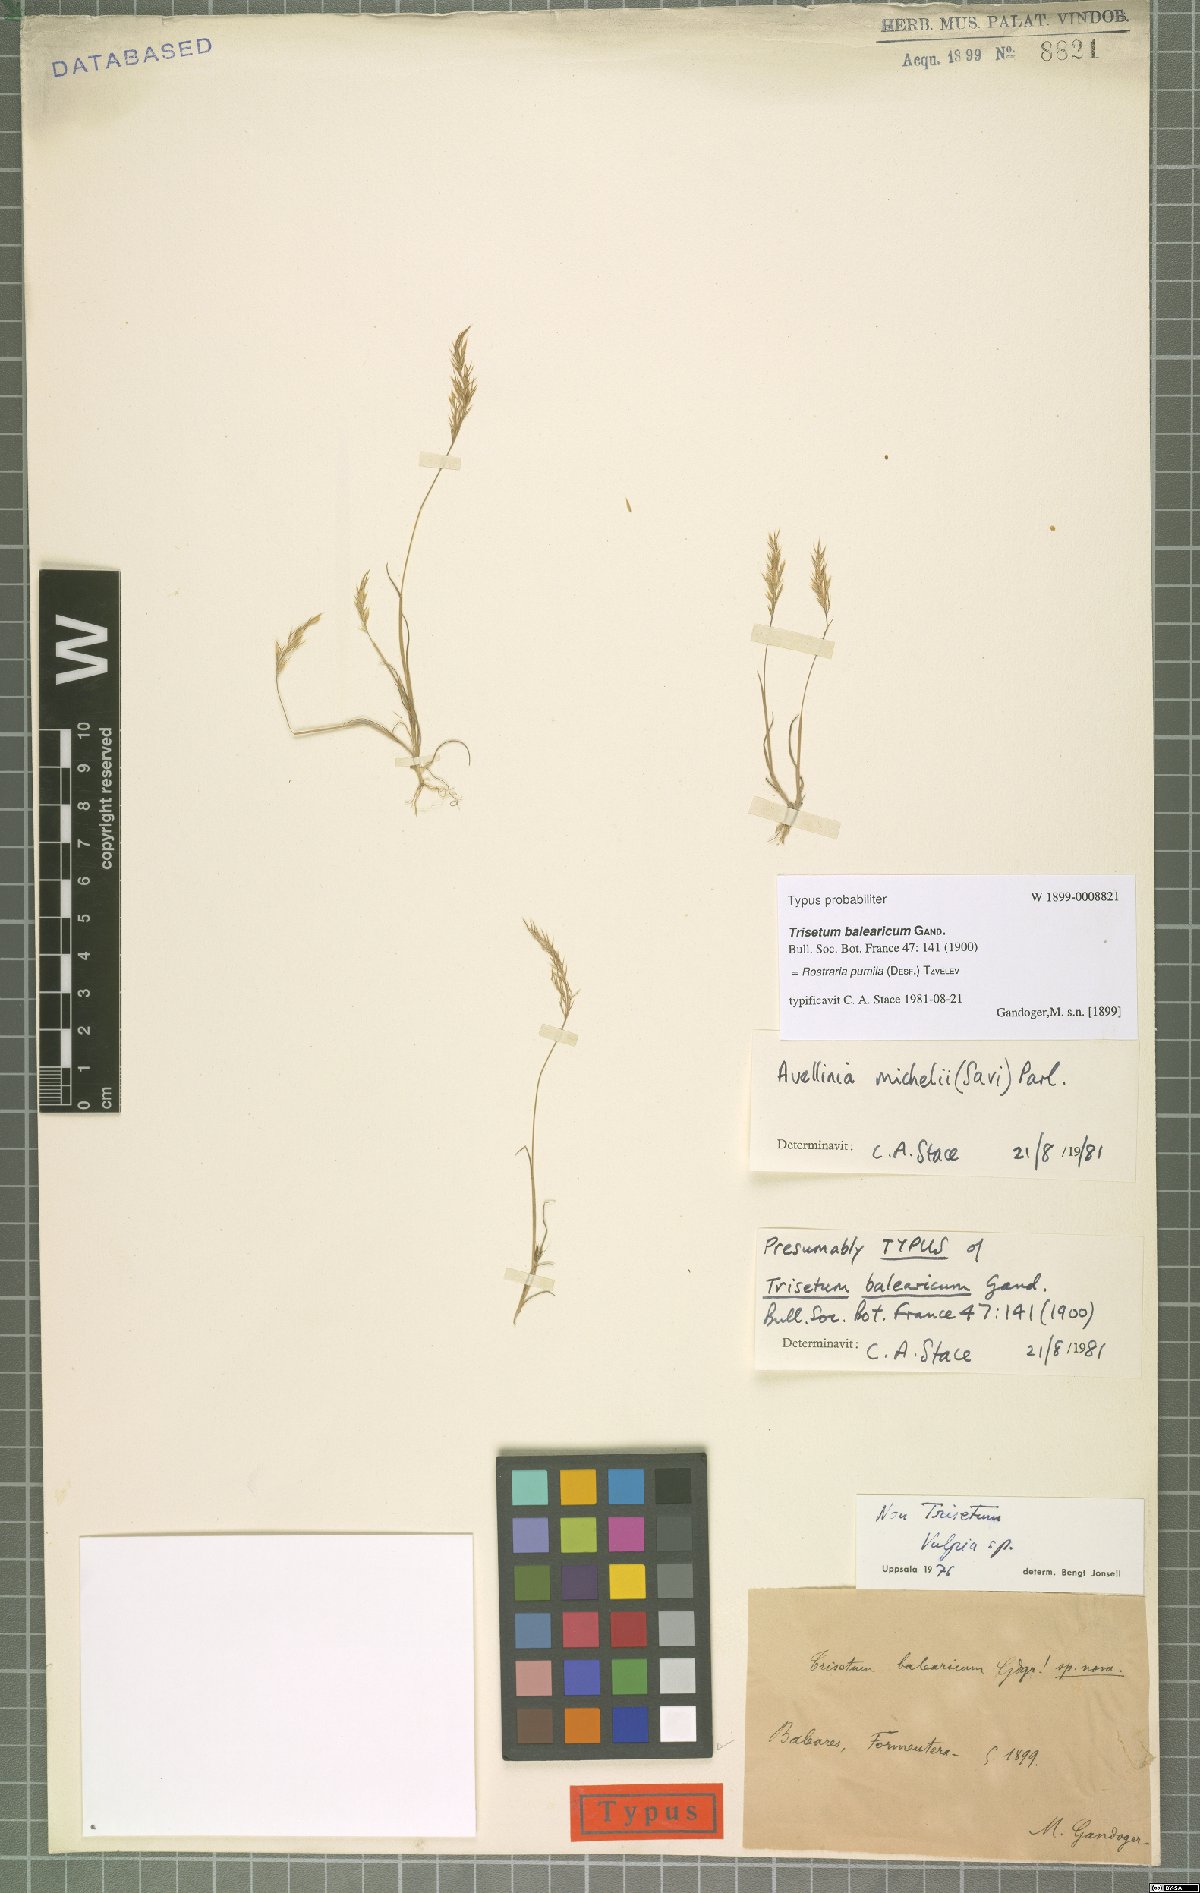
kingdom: Plantae
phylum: Tracheophyta
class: Liliopsida
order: Poales
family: Poaceae
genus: Rostraria
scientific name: Rostraria pumila
